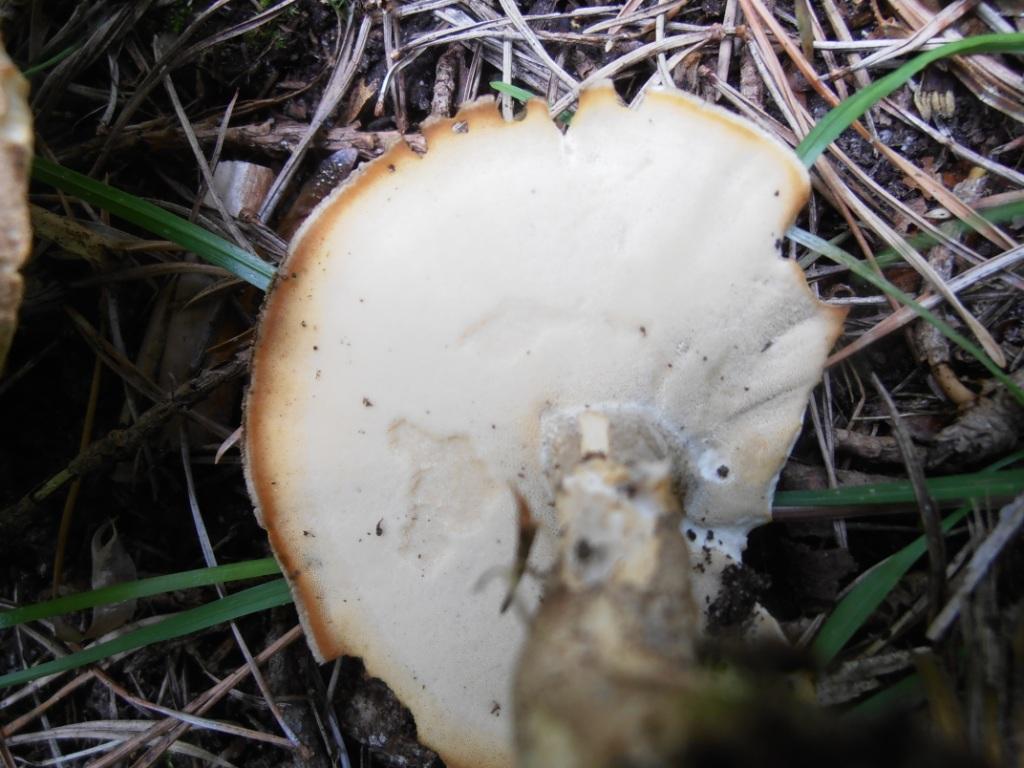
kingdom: Fungi
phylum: Basidiomycota
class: Agaricomycetes
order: Polyporales
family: Polyporaceae
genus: Lentinus
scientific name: Lentinus substrictus
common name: forårs-stilkporesvamp
